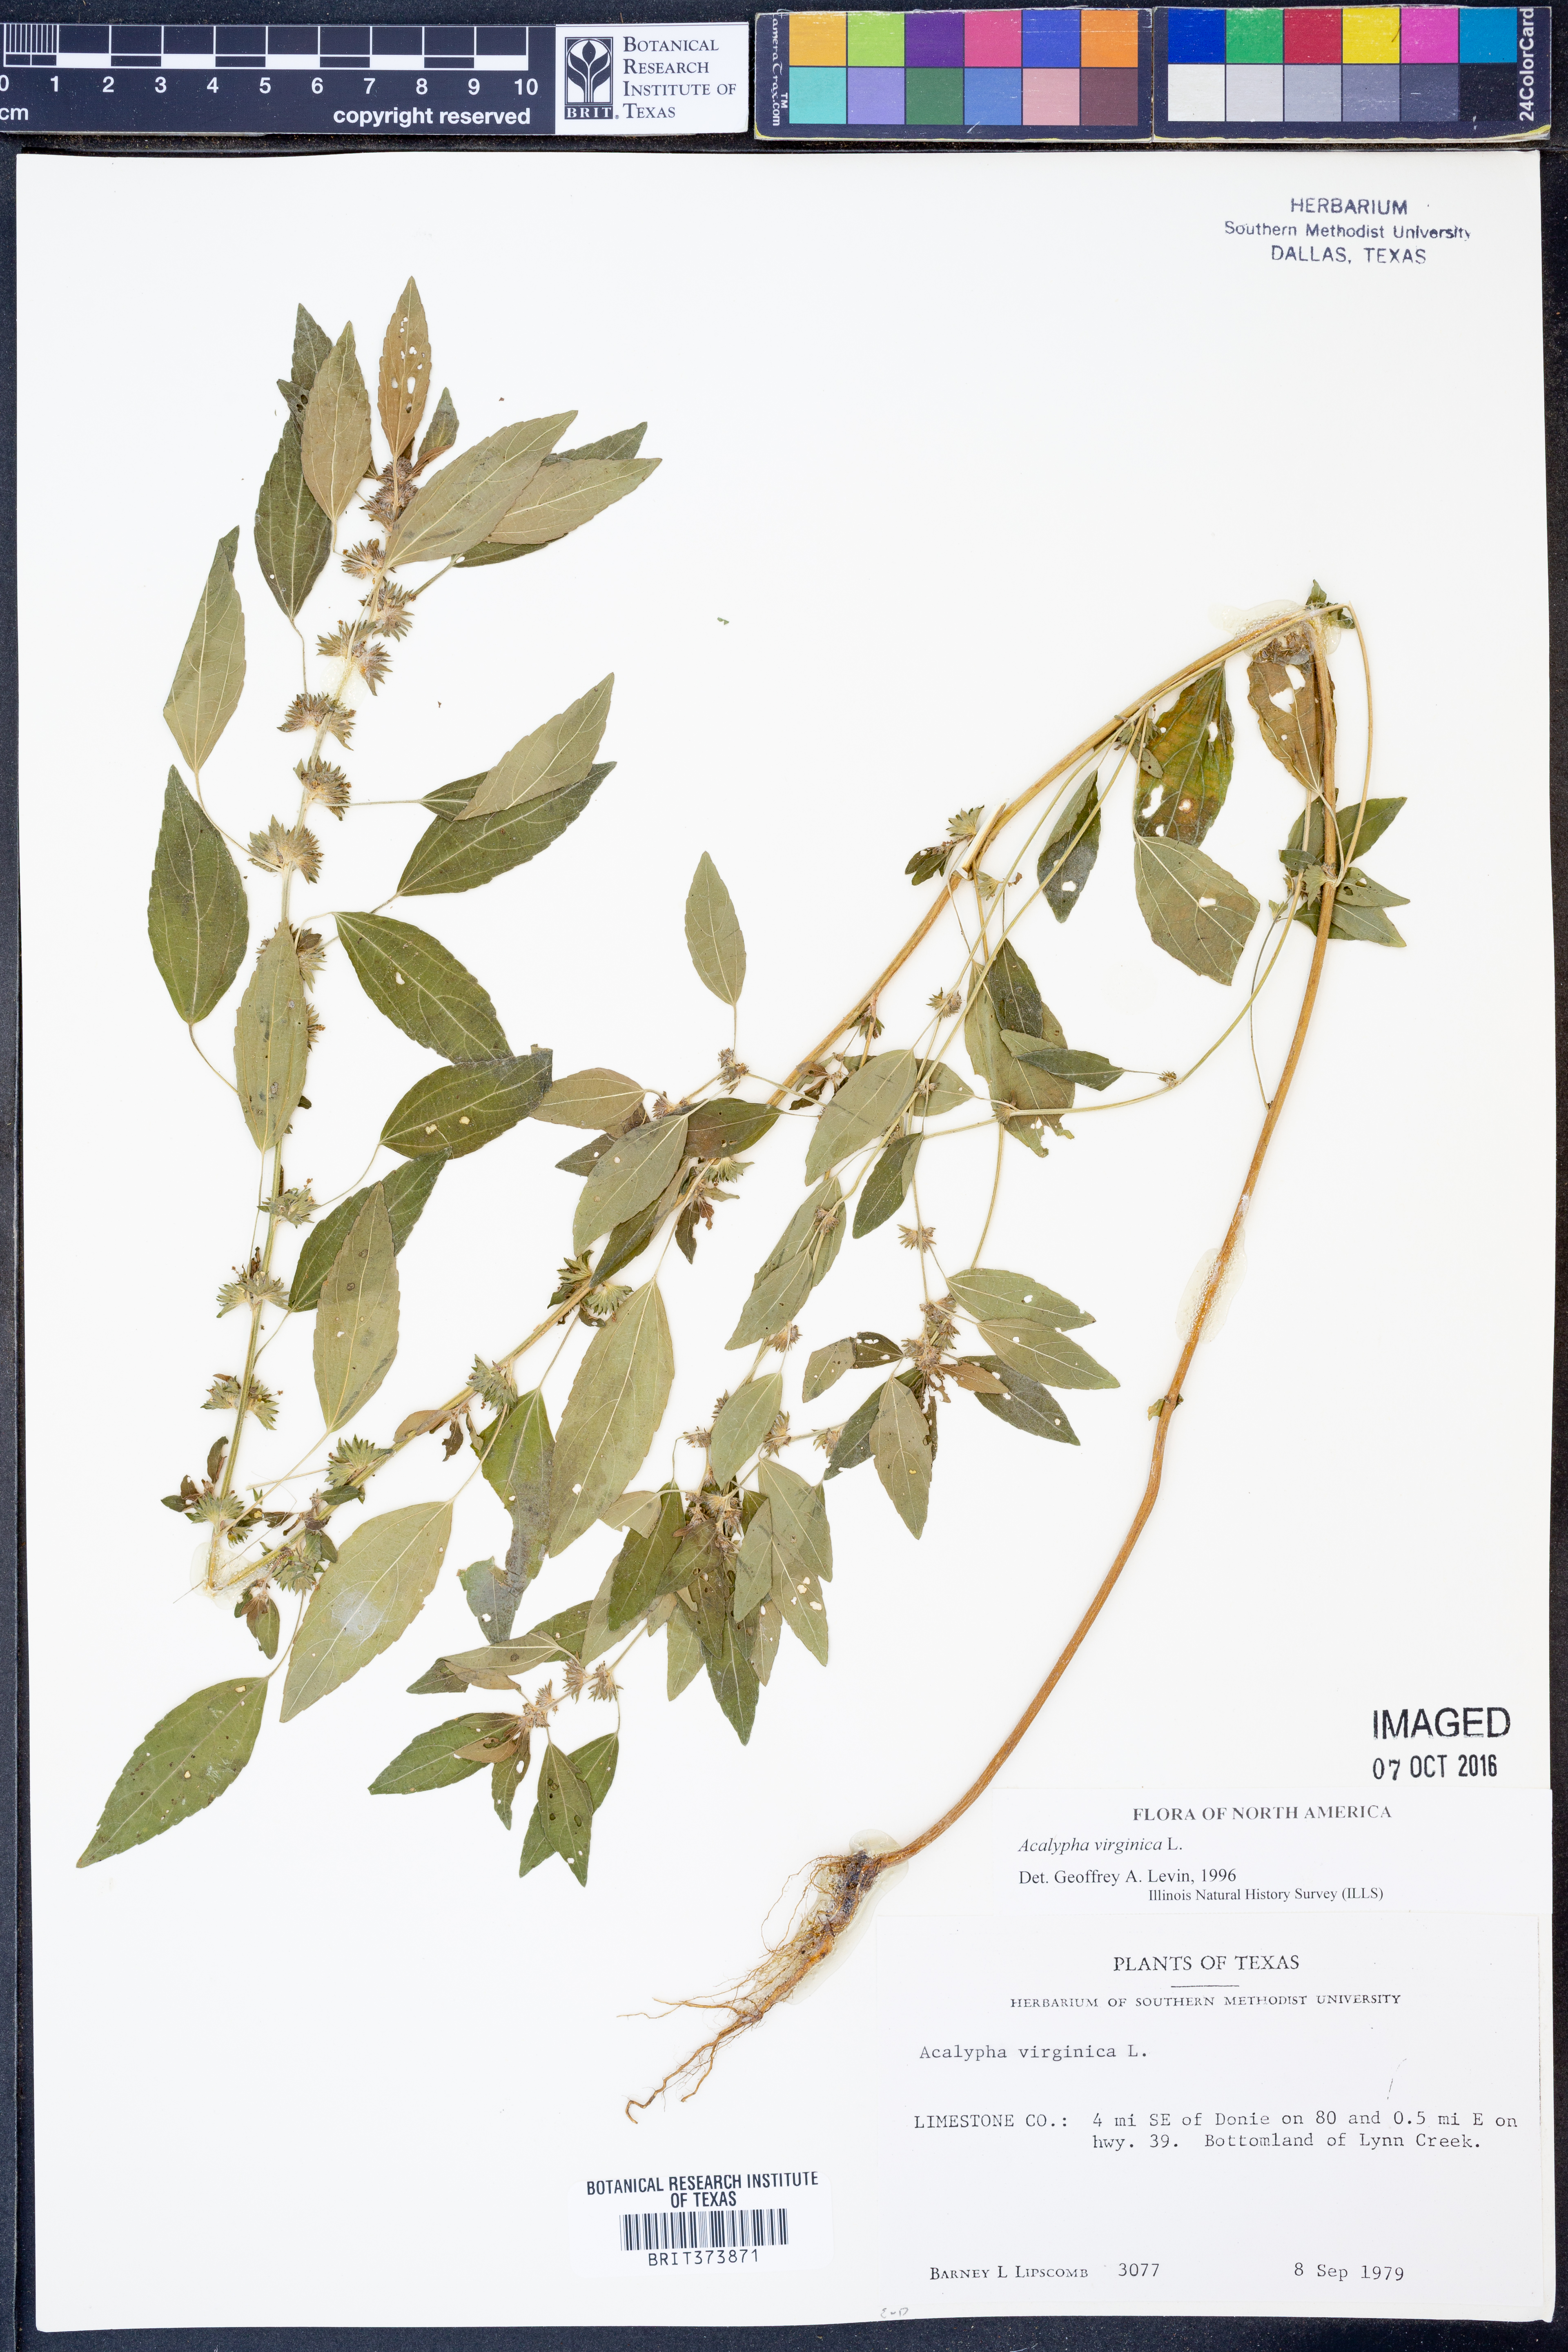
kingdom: Plantae
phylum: Tracheophyta
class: Magnoliopsida
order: Malpighiales
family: Euphorbiaceae
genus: Acalypha
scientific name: Acalypha virginica
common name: Virginia copperleaf
